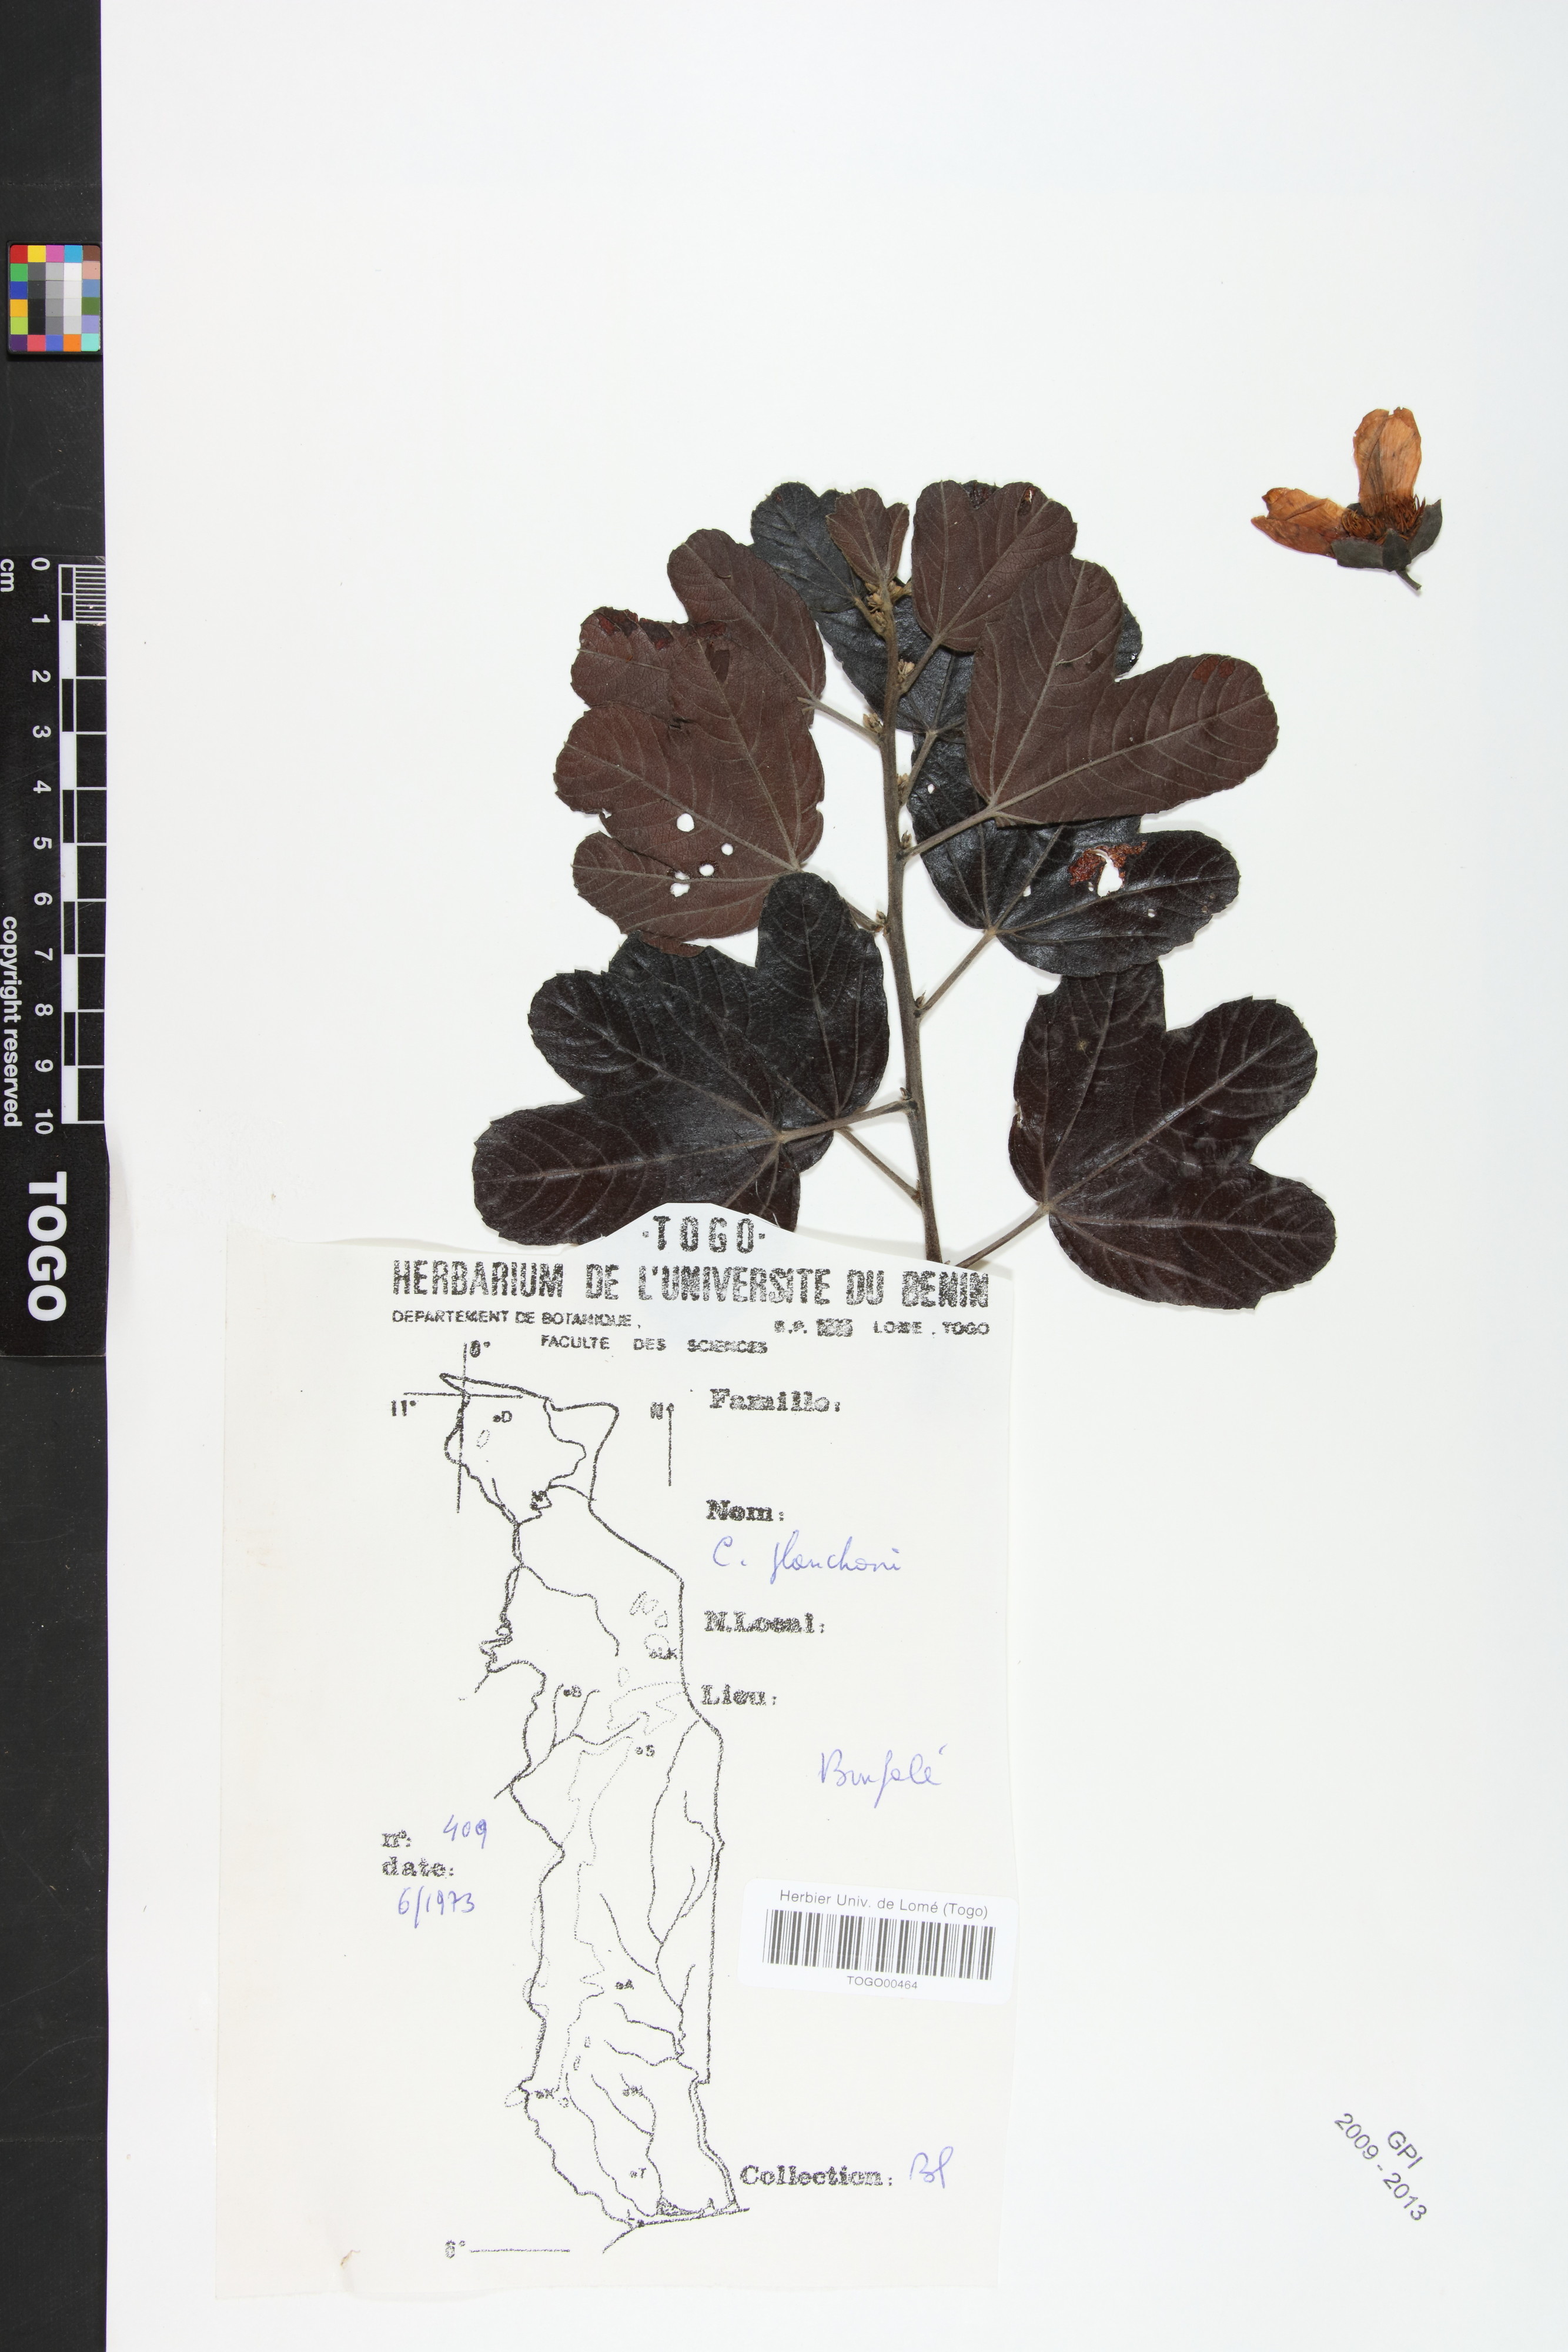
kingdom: Plantae
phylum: Tracheophyta
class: Magnoliopsida
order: Malvales
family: Cochlospermaceae
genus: Cochlospermum
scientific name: Cochlospermum planchonii
